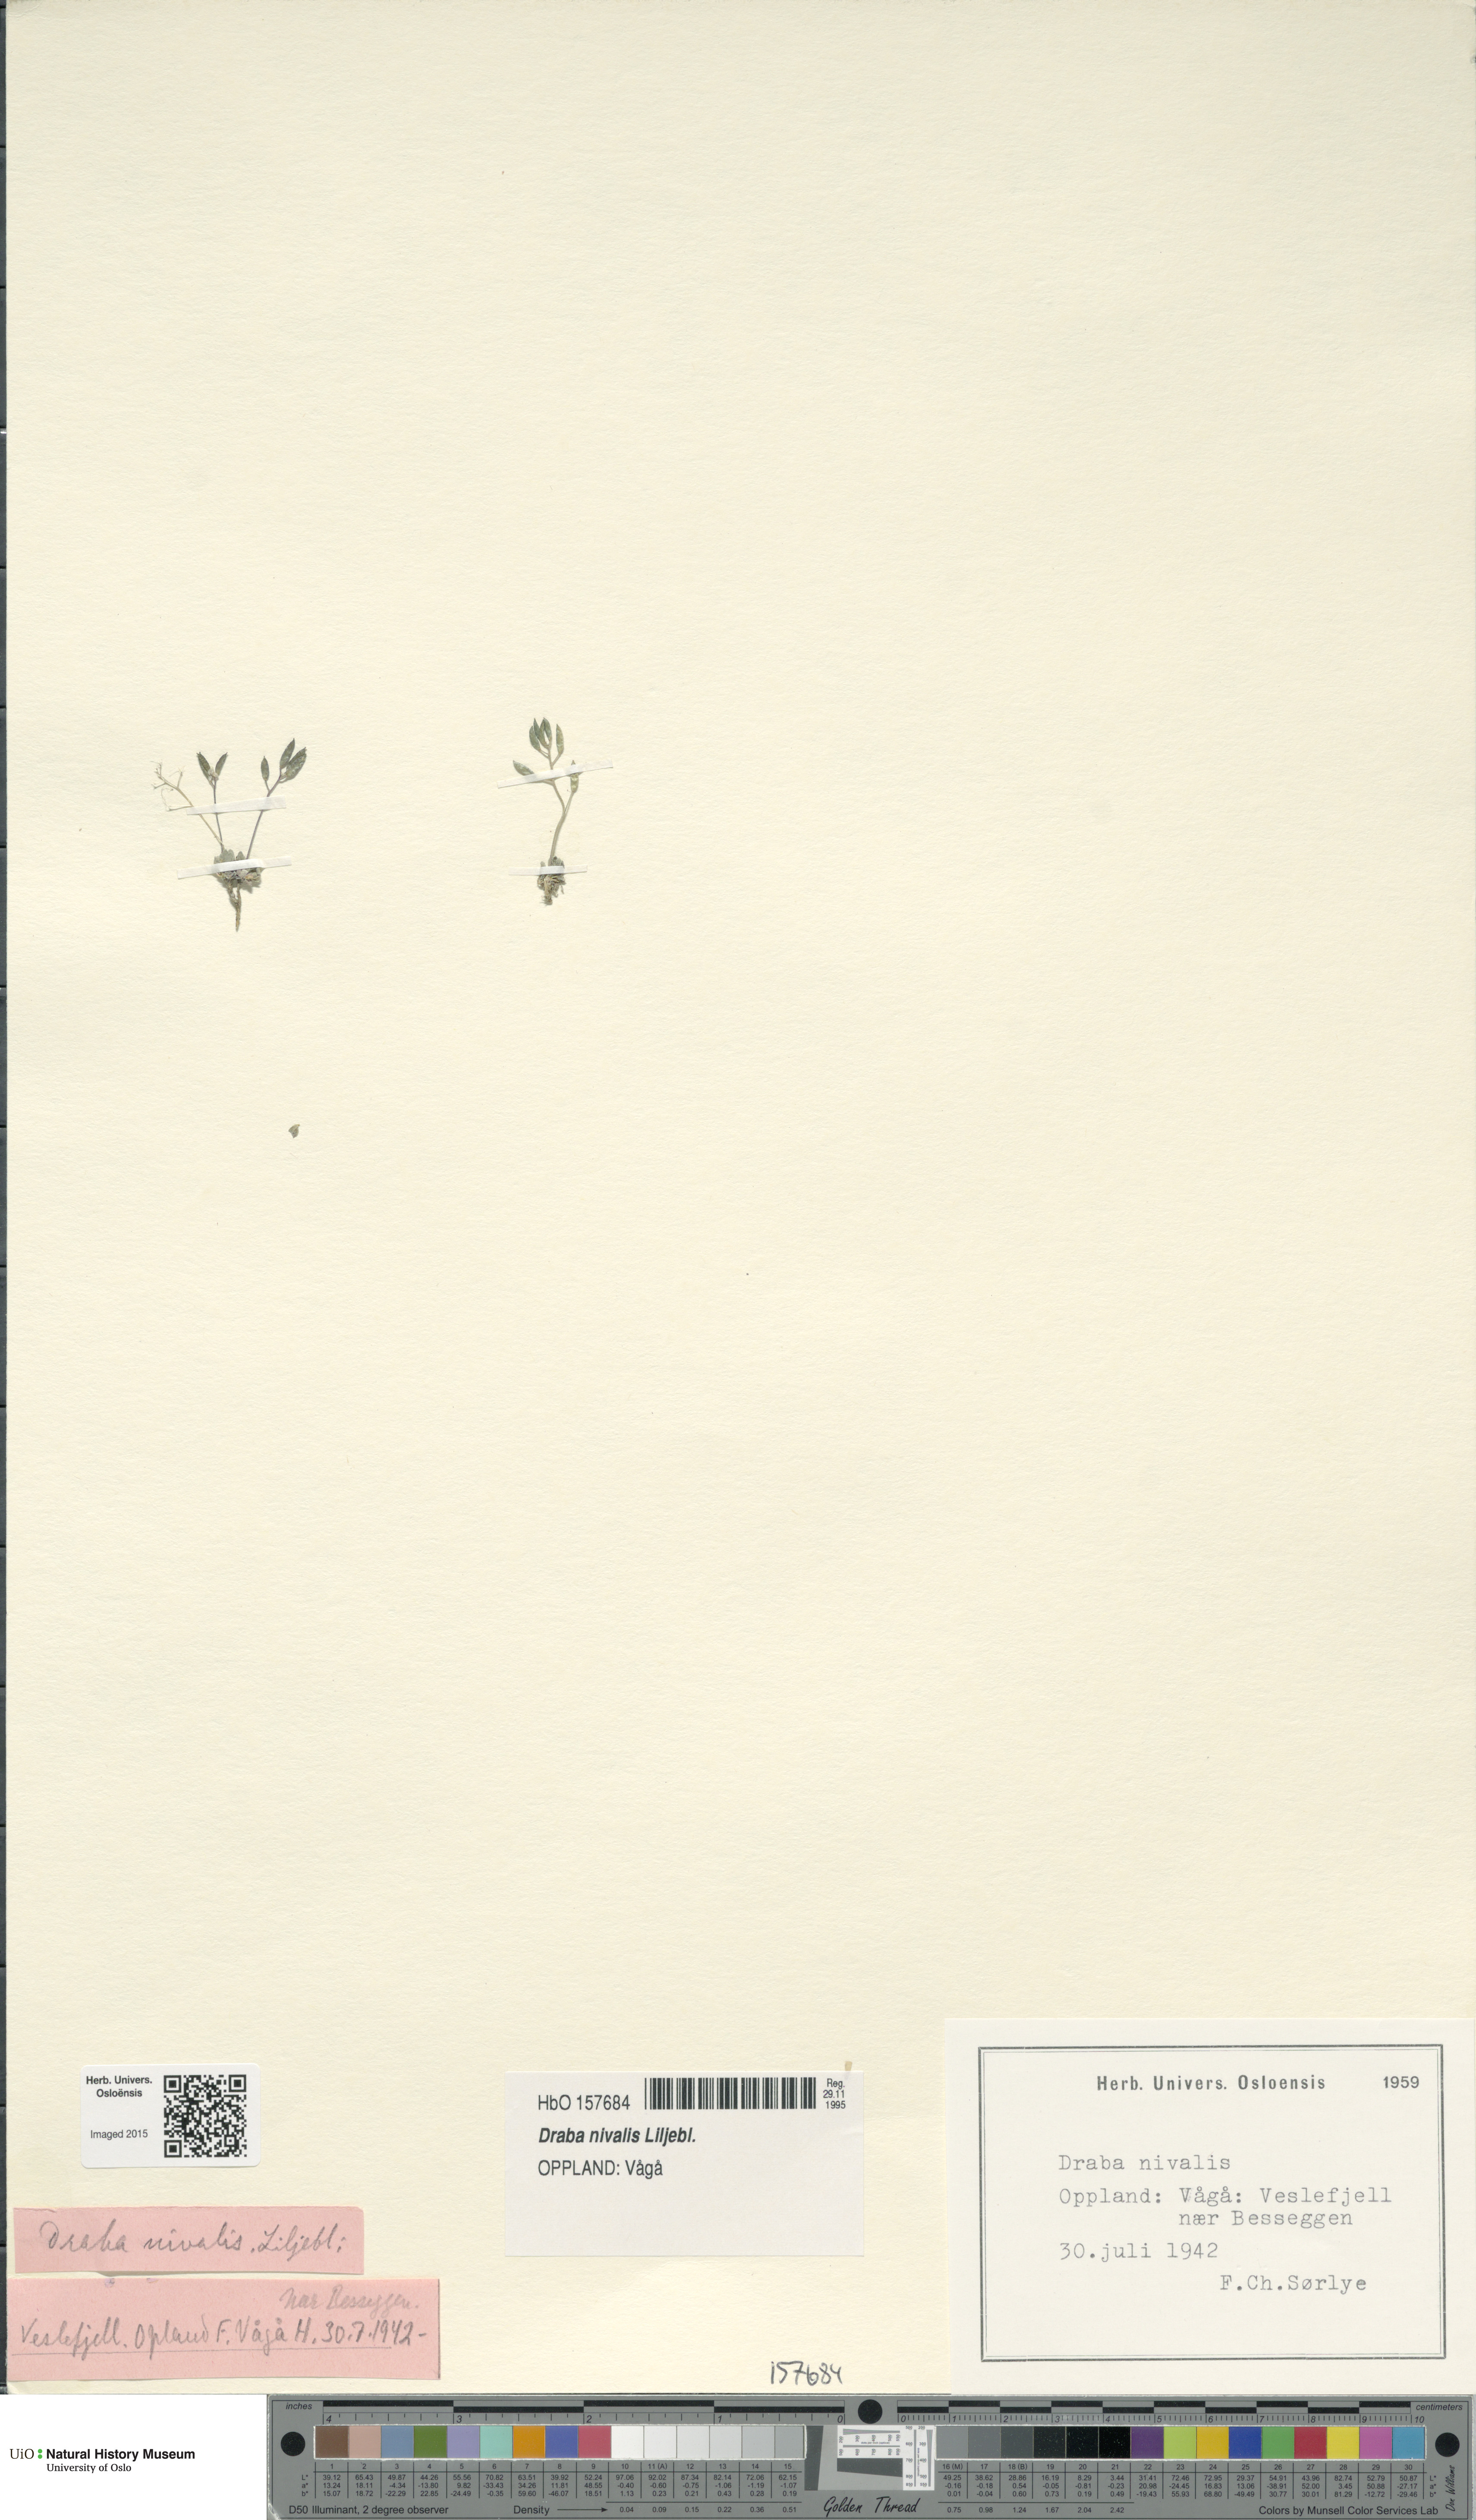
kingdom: Plantae
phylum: Tracheophyta
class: Magnoliopsida
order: Brassicales
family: Brassicaceae
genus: Draba
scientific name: Draba nivalis
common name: Snow draba
